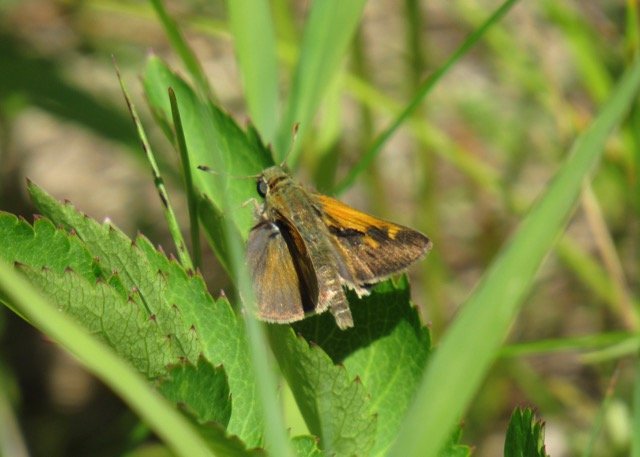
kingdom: Animalia
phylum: Arthropoda
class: Insecta
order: Lepidoptera
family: Hesperiidae
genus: Polites
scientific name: Polites themistocles
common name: Tawny-edged Skipper
